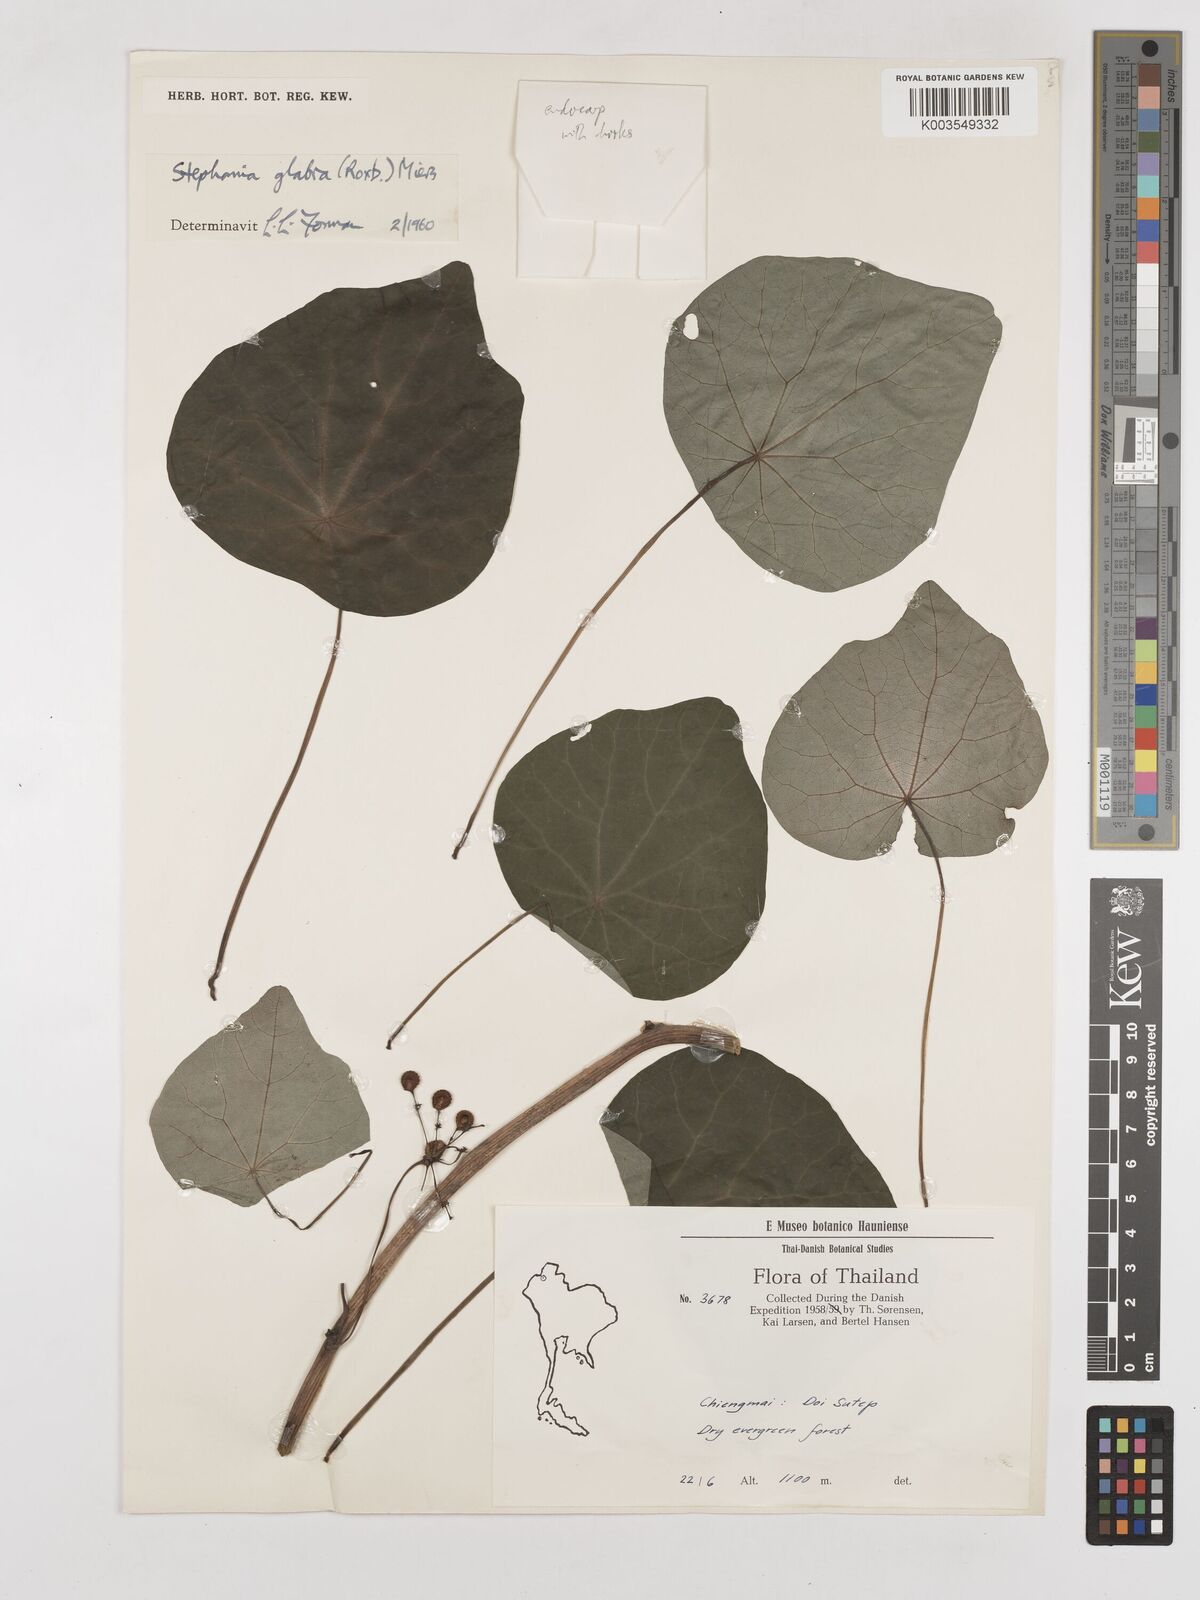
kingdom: Plantae
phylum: Tracheophyta
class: Magnoliopsida
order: Ranunculales
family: Menispermaceae
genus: Stephania
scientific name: Stephania rotunda
